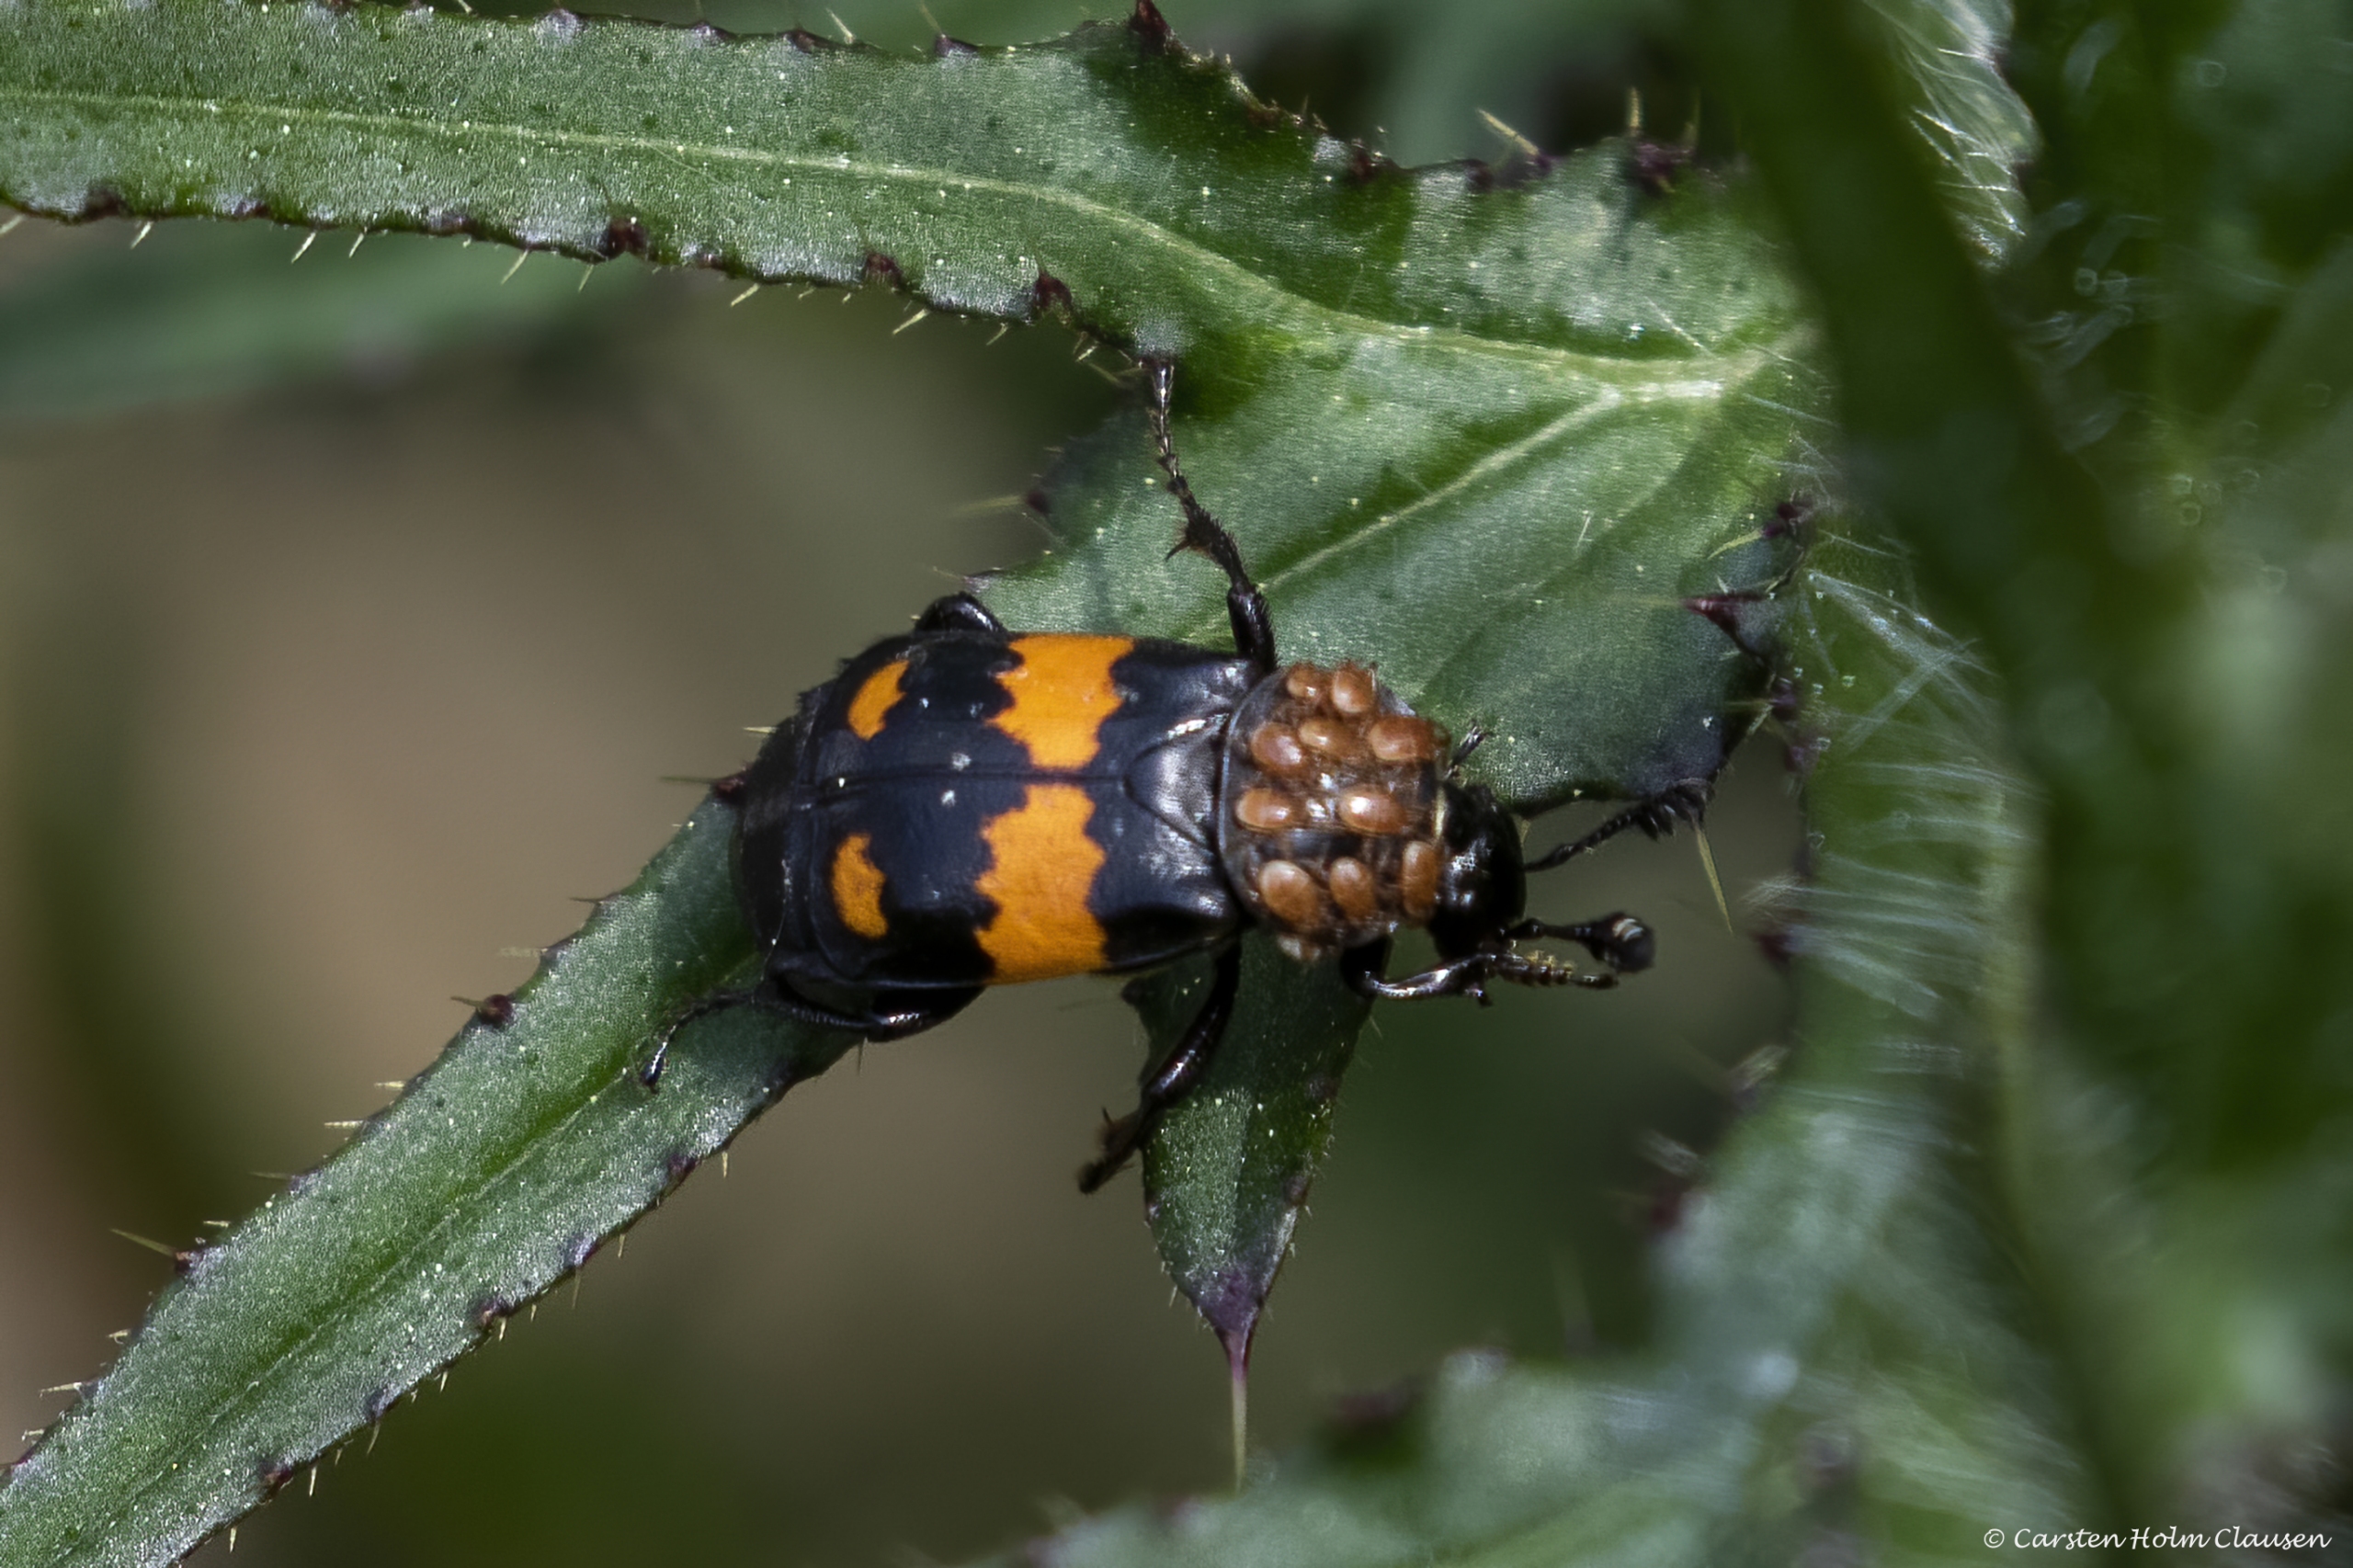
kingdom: Animalia
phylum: Arthropoda
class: Insecta
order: Coleoptera
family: Staphylinidae
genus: Nicrophorus
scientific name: Nicrophorus vespilloides
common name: Sortkøllet ådselgraver
